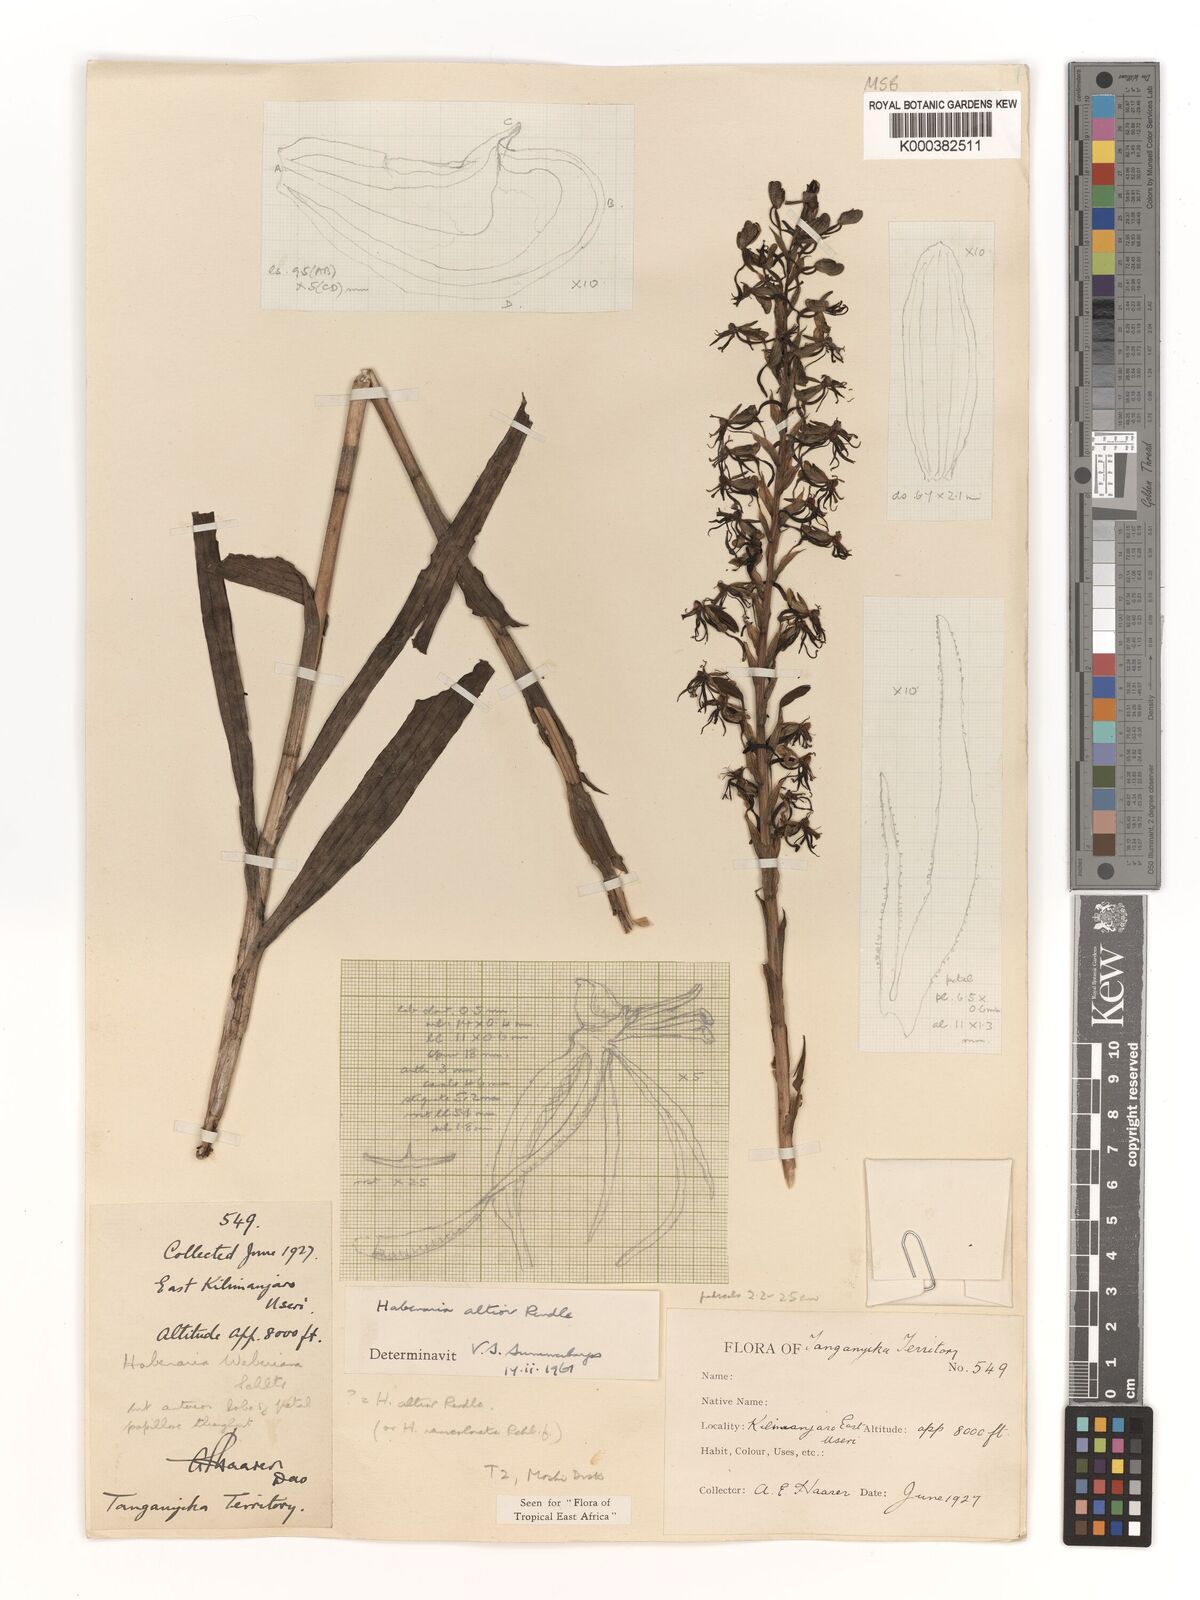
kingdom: Plantae
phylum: Tracheophyta
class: Liliopsida
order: Asparagales
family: Orchidaceae
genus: Habenaria
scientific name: Habenaria altior
